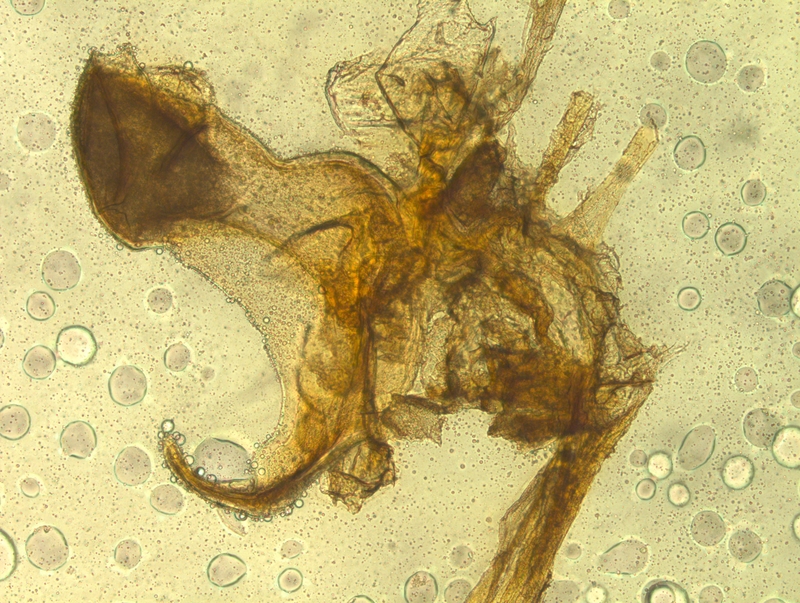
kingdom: Animalia
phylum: Arthropoda
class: Diplopoda
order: Chordeumatida
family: Craspedosomatidae
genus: Rhymogona
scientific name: Rhymogona montivaga
